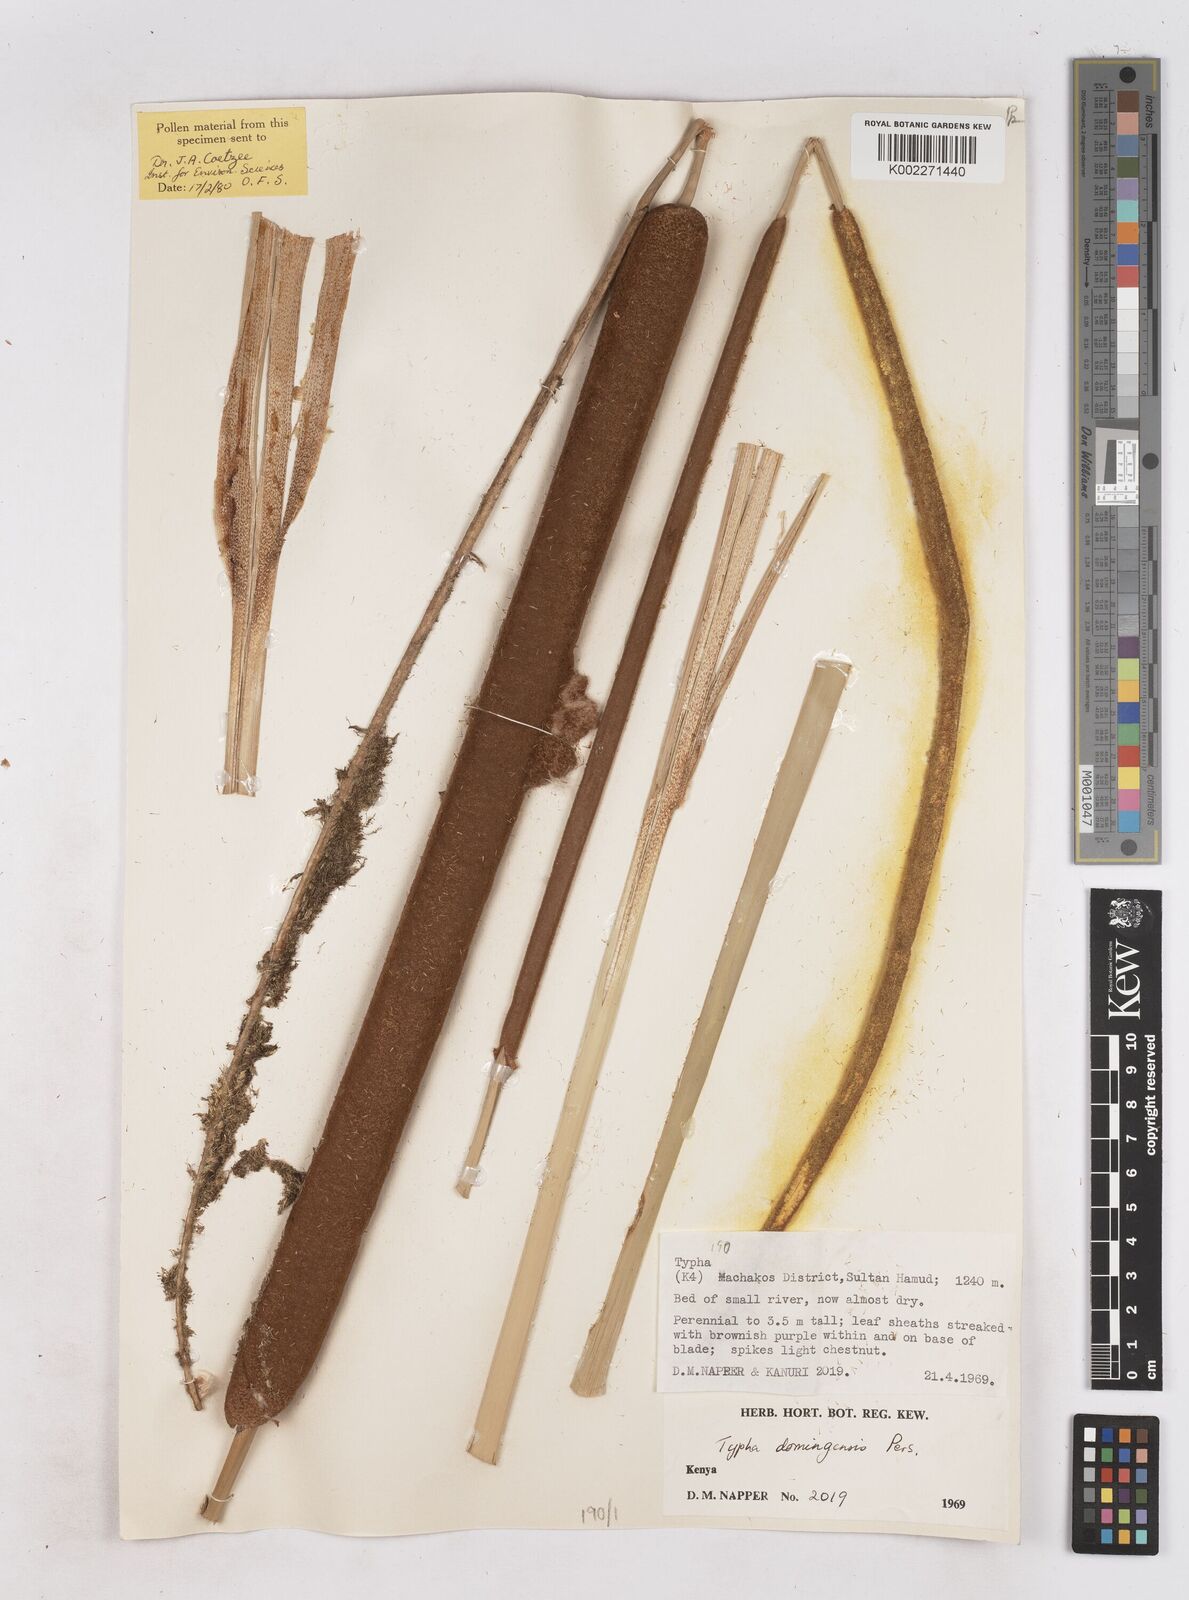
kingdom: Plantae
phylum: Tracheophyta
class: Liliopsida
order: Poales
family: Typhaceae
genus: Typha
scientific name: Typha domingensis
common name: Southern cattail
